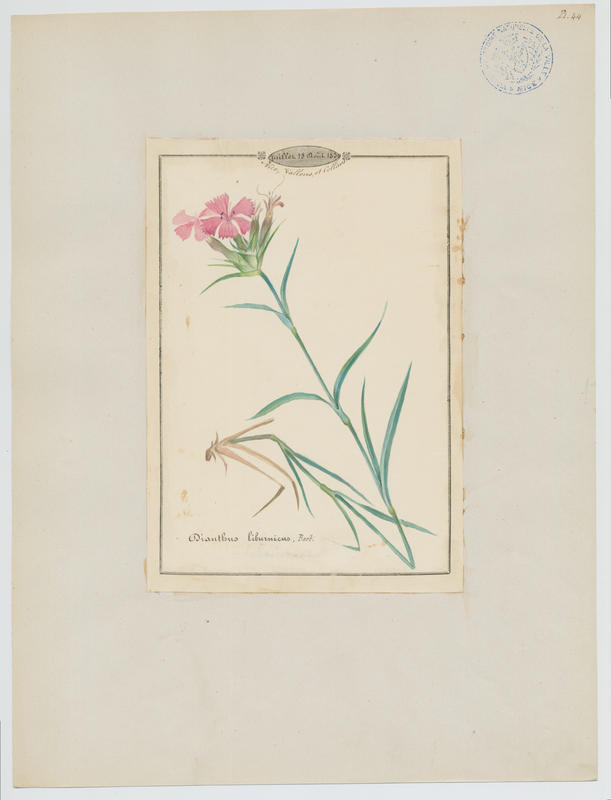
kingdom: Plantae
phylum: Tracheophyta
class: Magnoliopsida
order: Caryophyllales
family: Caryophyllaceae
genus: Dianthus
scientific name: Dianthus balbisii
